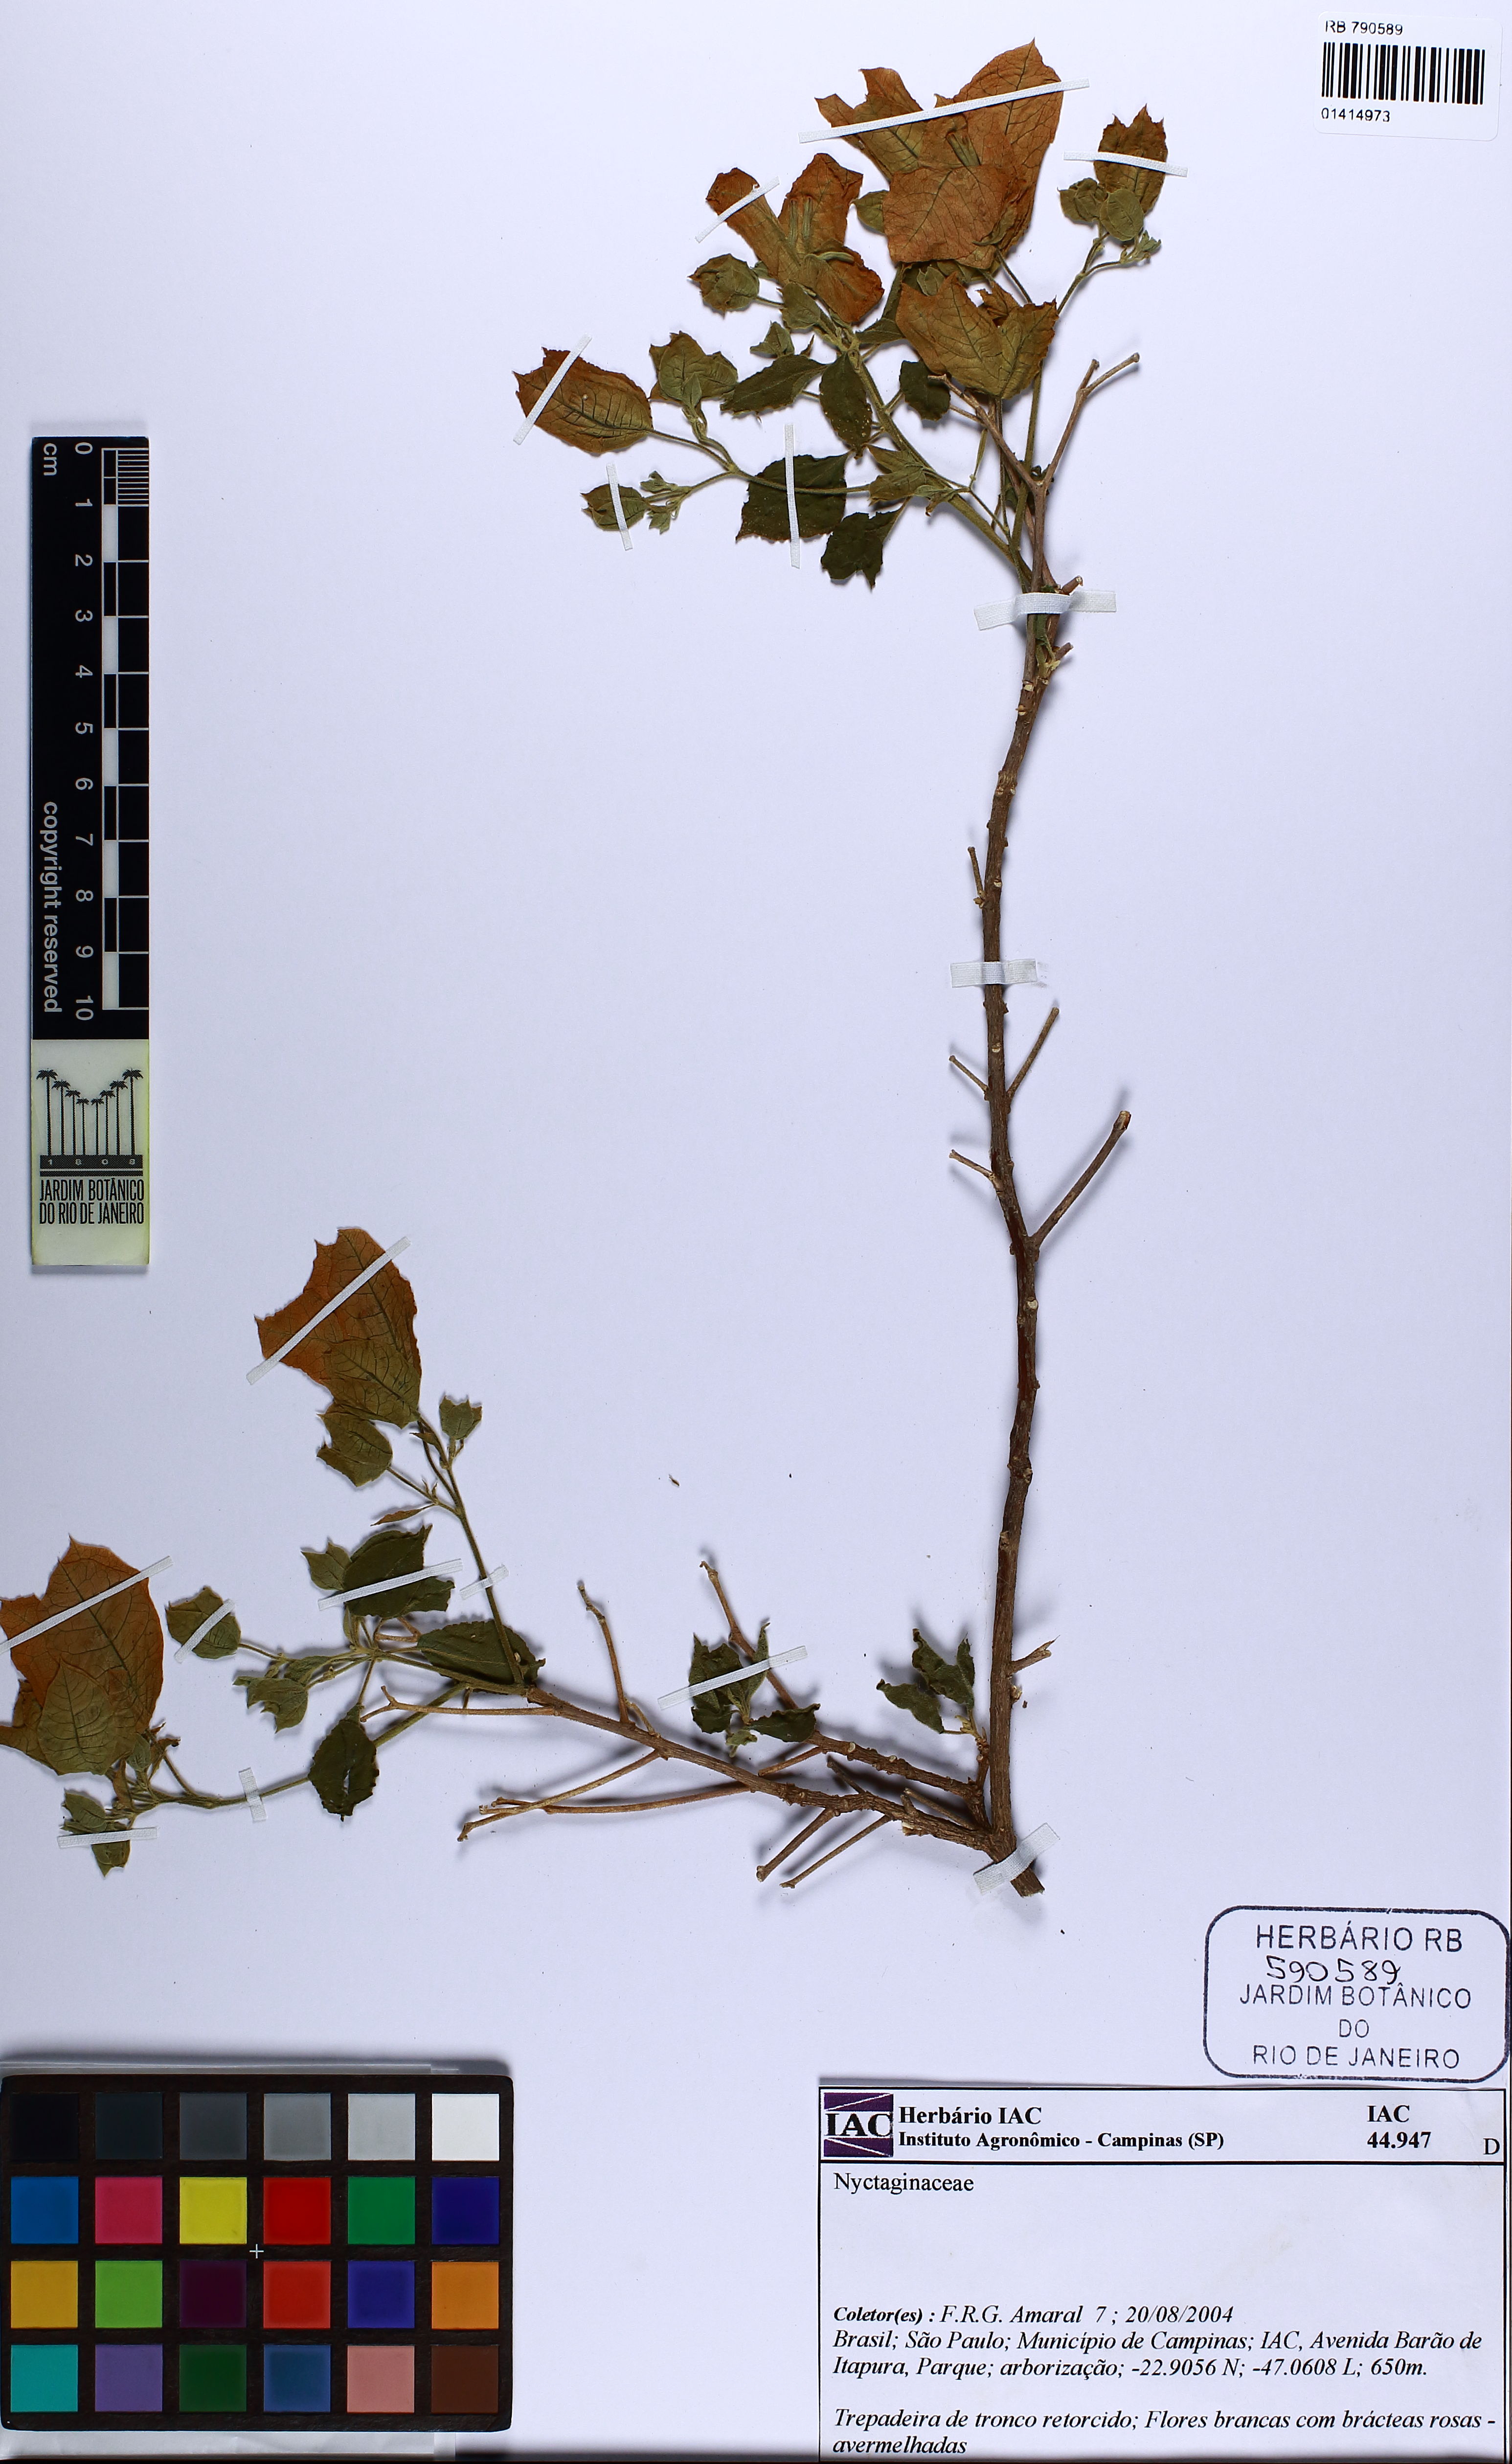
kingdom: Plantae
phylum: Tracheophyta
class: Magnoliopsida
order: Caryophyllales
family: Nyctaginaceae
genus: Bougainvillea
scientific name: Bougainvillea spectabilis
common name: Great bougainvillea
